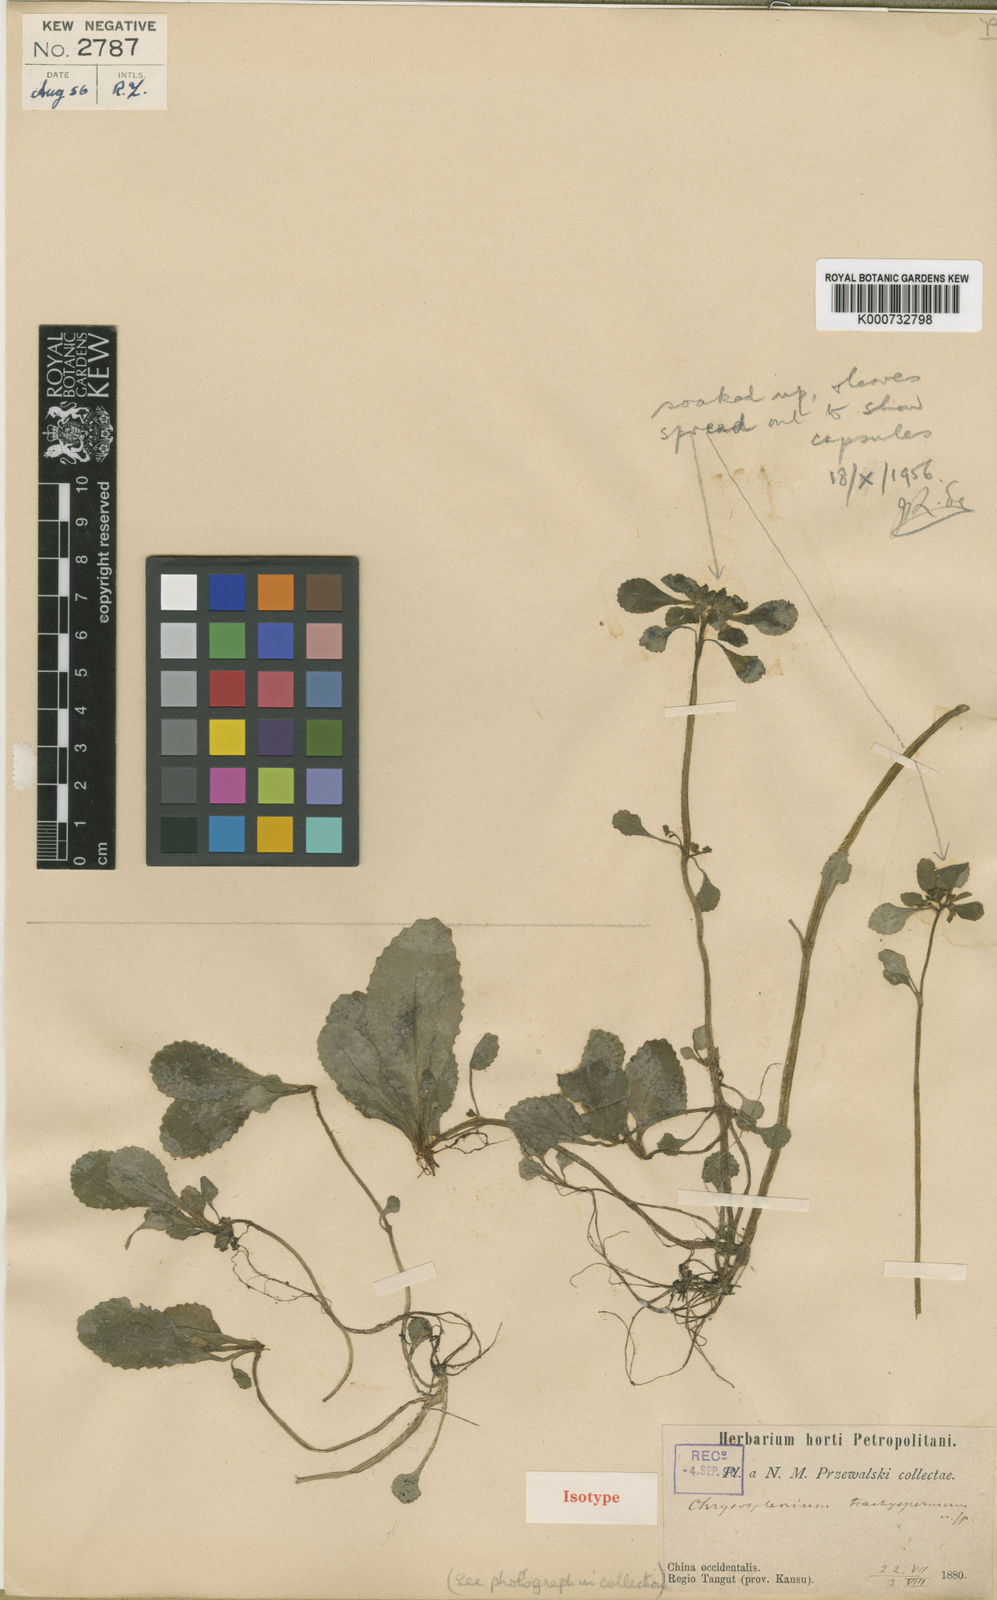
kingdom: Plantae
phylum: Tracheophyta
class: Magnoliopsida
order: Saxifragales
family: Saxifragaceae
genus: Chrysosplenium
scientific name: Chrysosplenium sinicum
